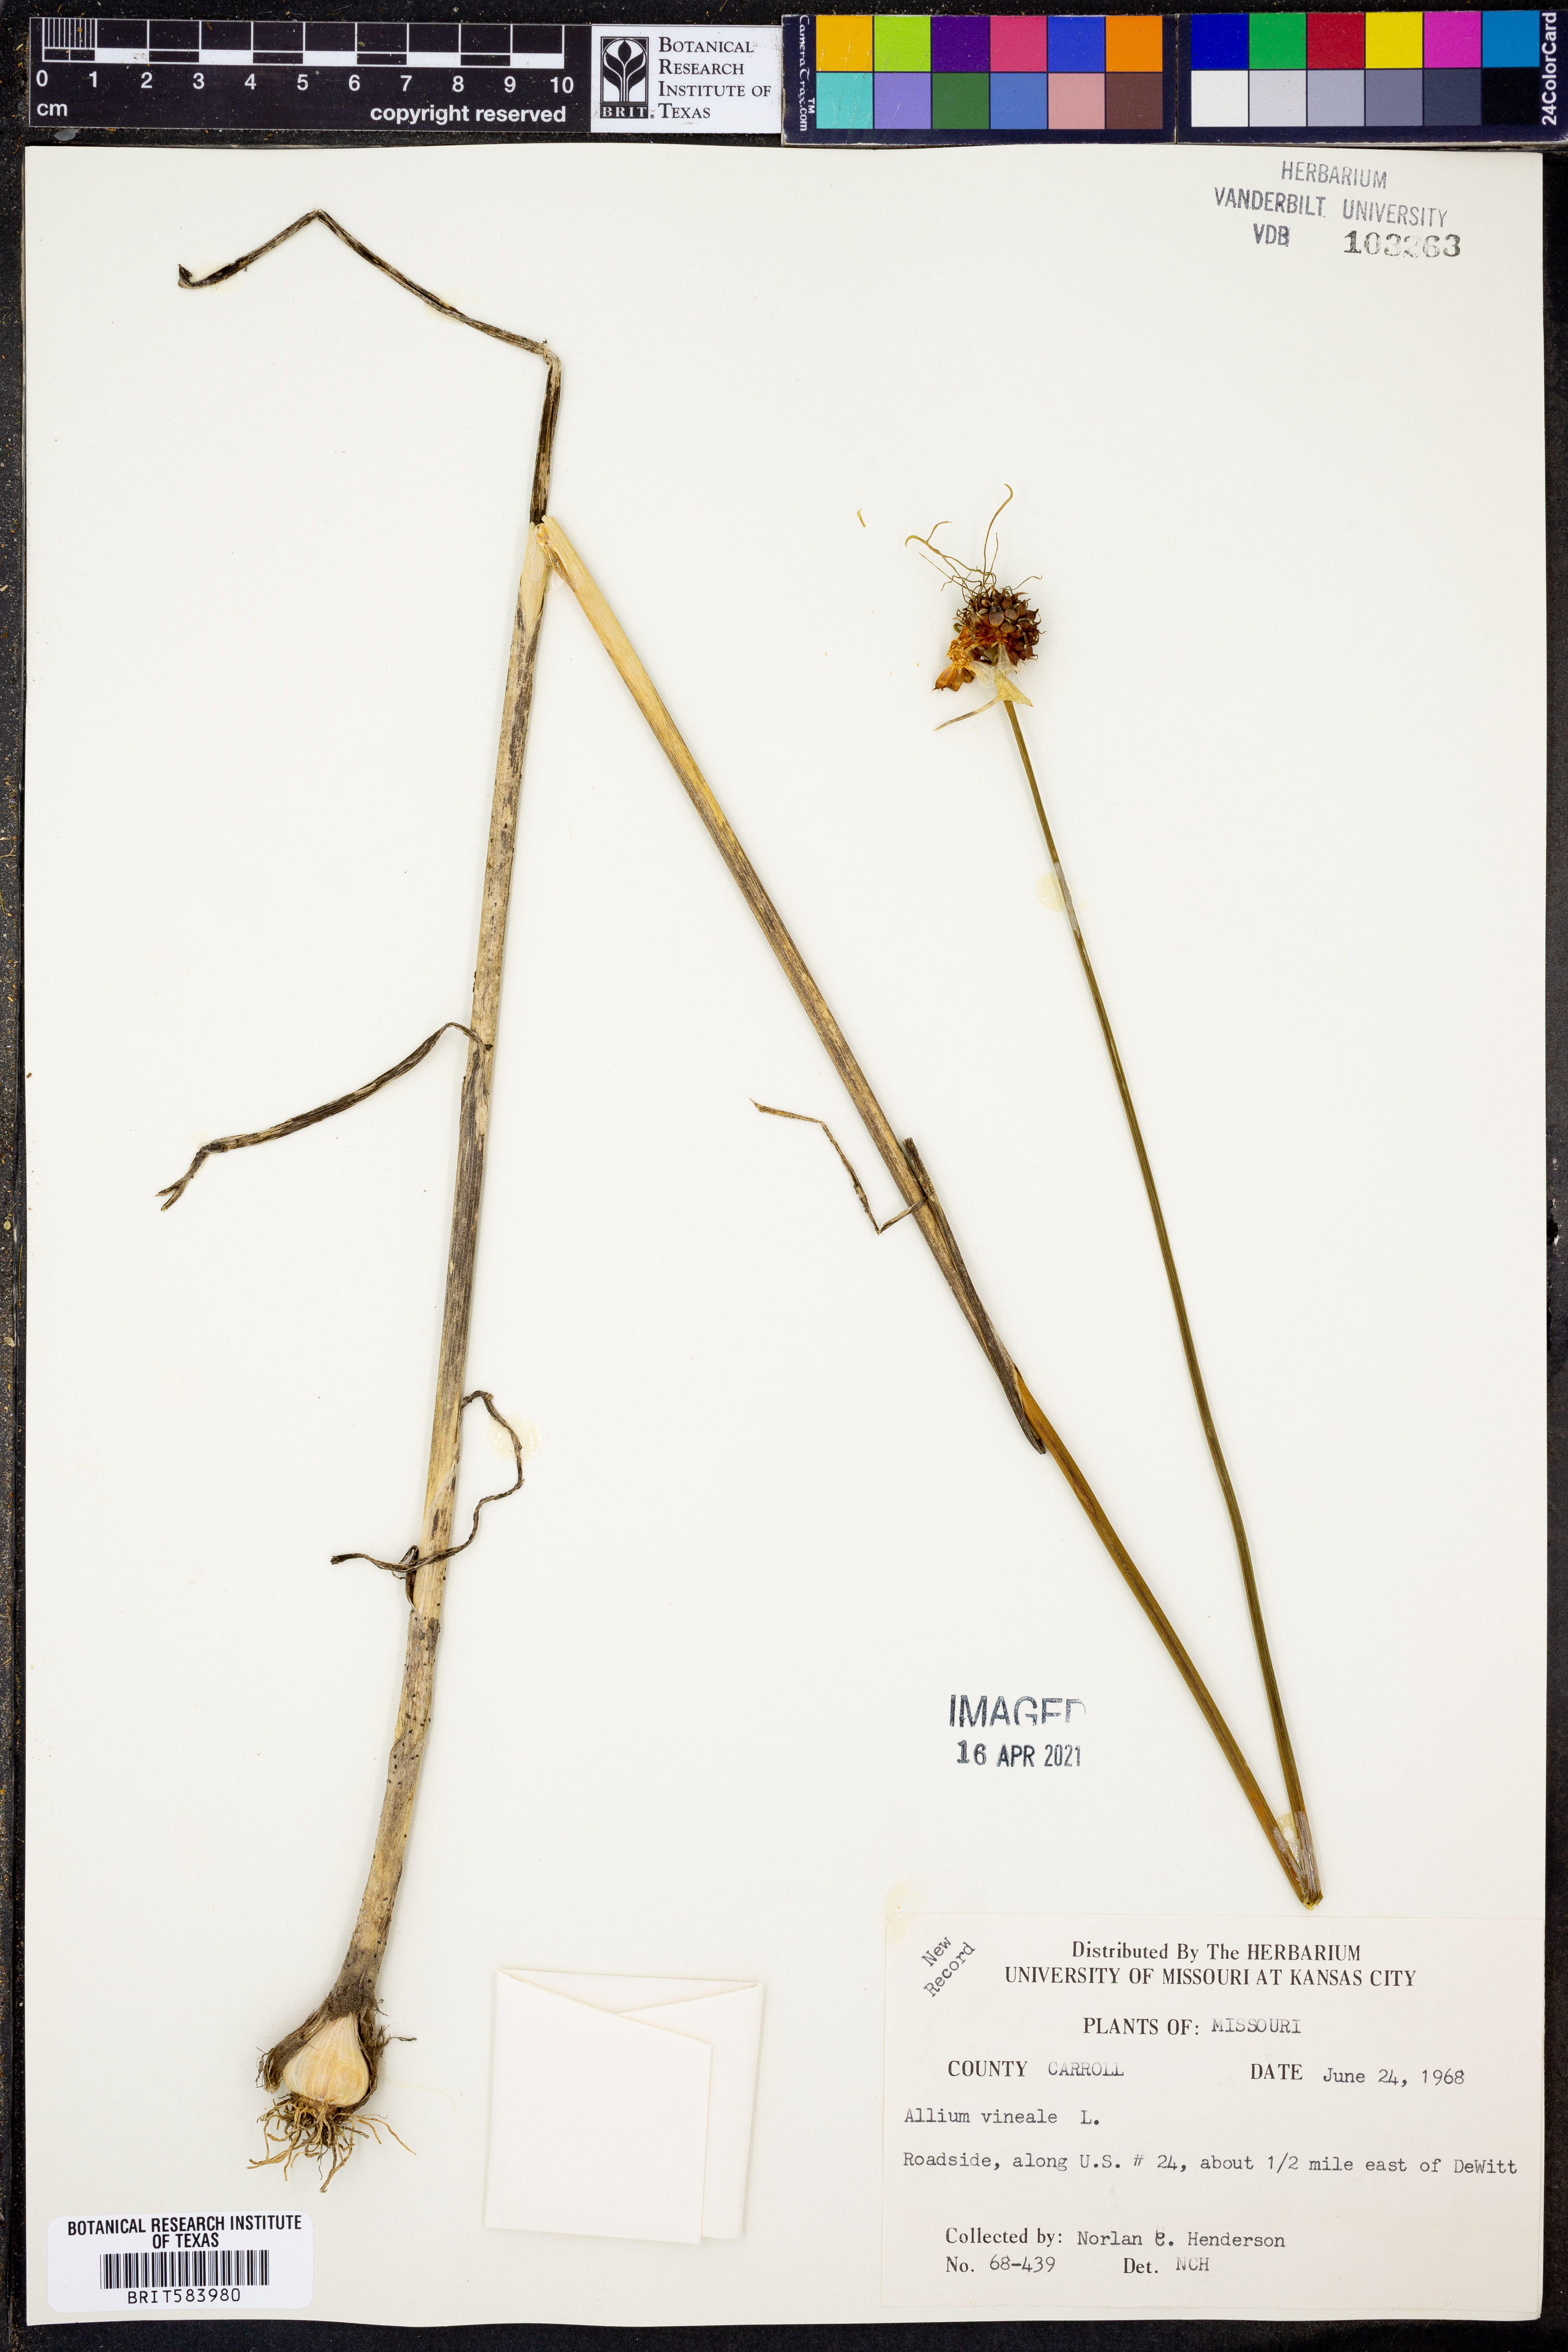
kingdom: Plantae
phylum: Tracheophyta
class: Liliopsida
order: Asparagales
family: Amaryllidaceae
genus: Allium
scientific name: Allium vineale
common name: Crow garlic
